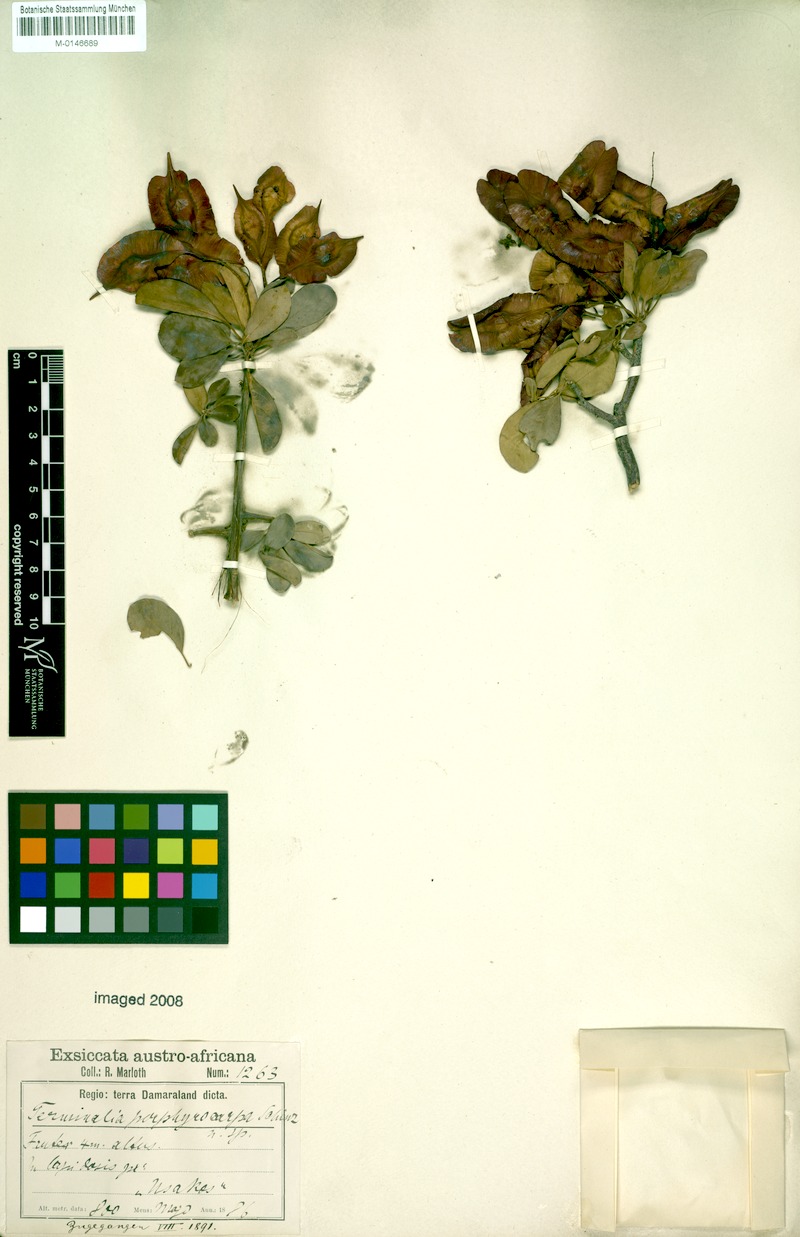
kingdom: Plantae
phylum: Tracheophyta
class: Magnoliopsida
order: Myrtales
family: Combretaceae
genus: Terminalia
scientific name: Terminalia prunioides
